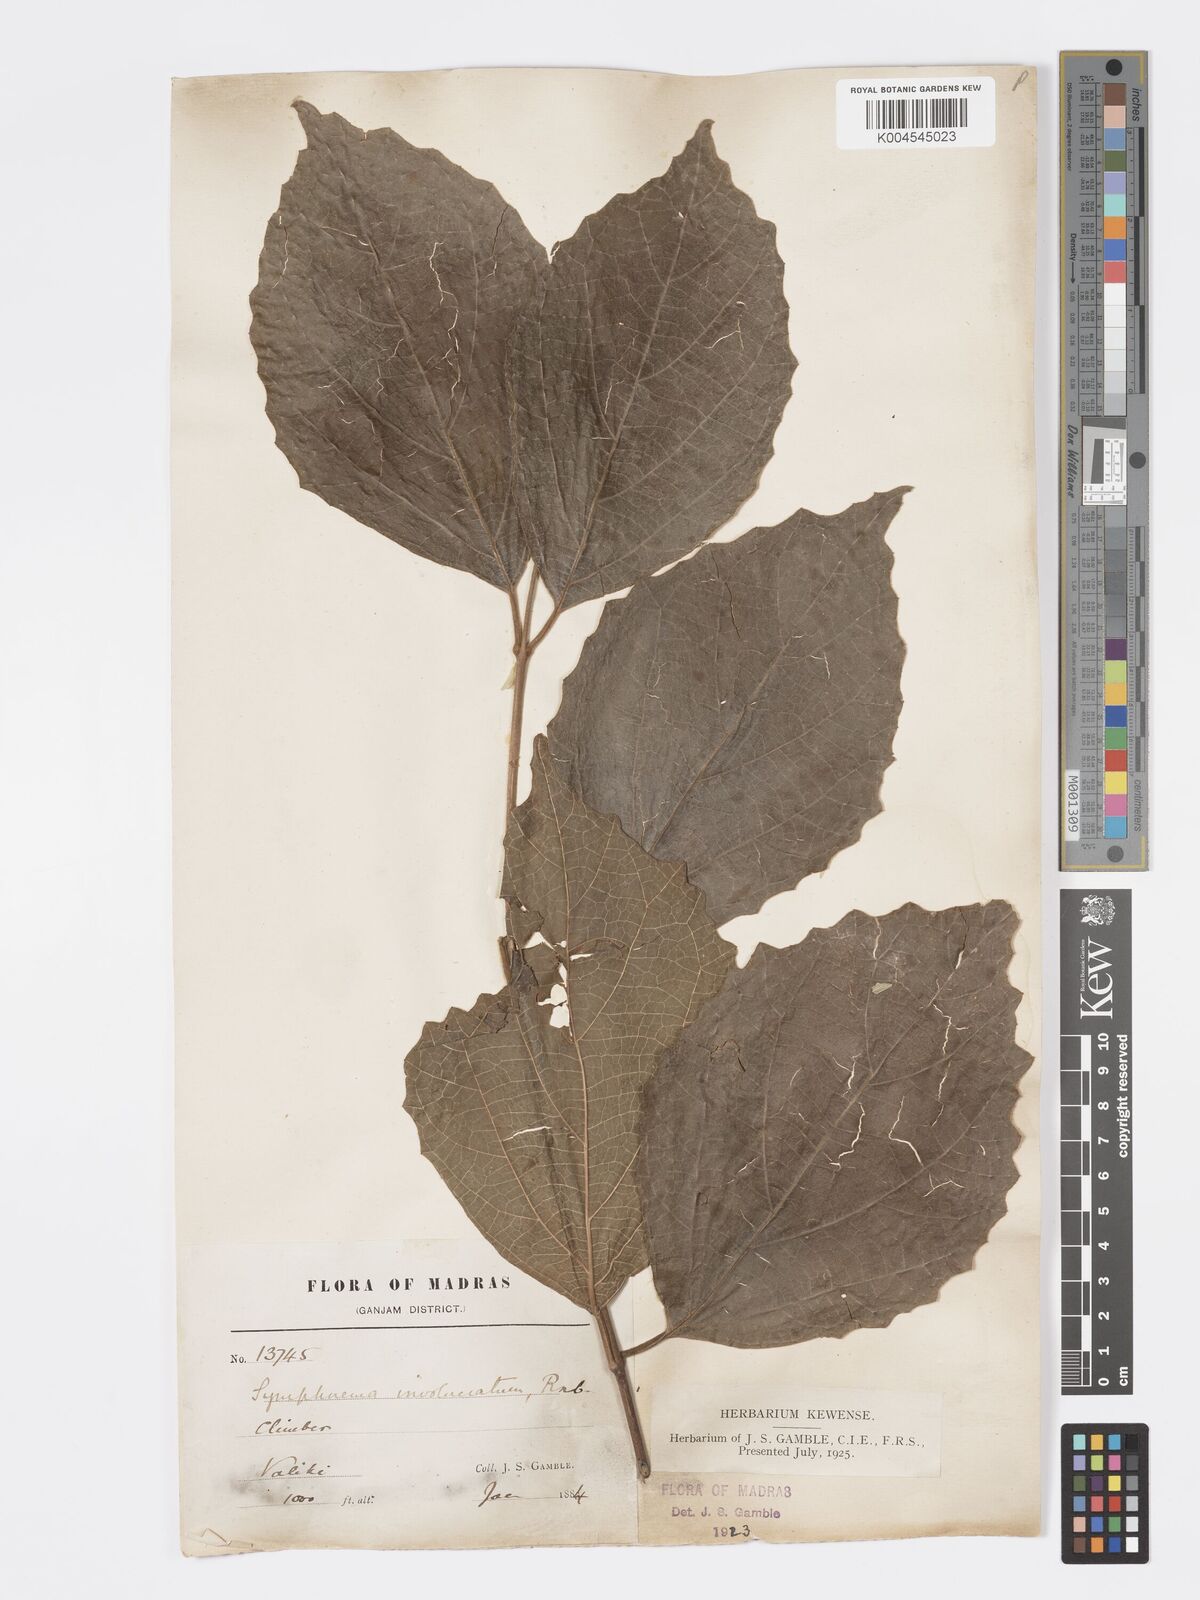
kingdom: Plantae
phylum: Tracheophyta
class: Magnoliopsida
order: Lamiales
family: Lamiaceae
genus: Symphorema
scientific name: Symphorema involucratum
